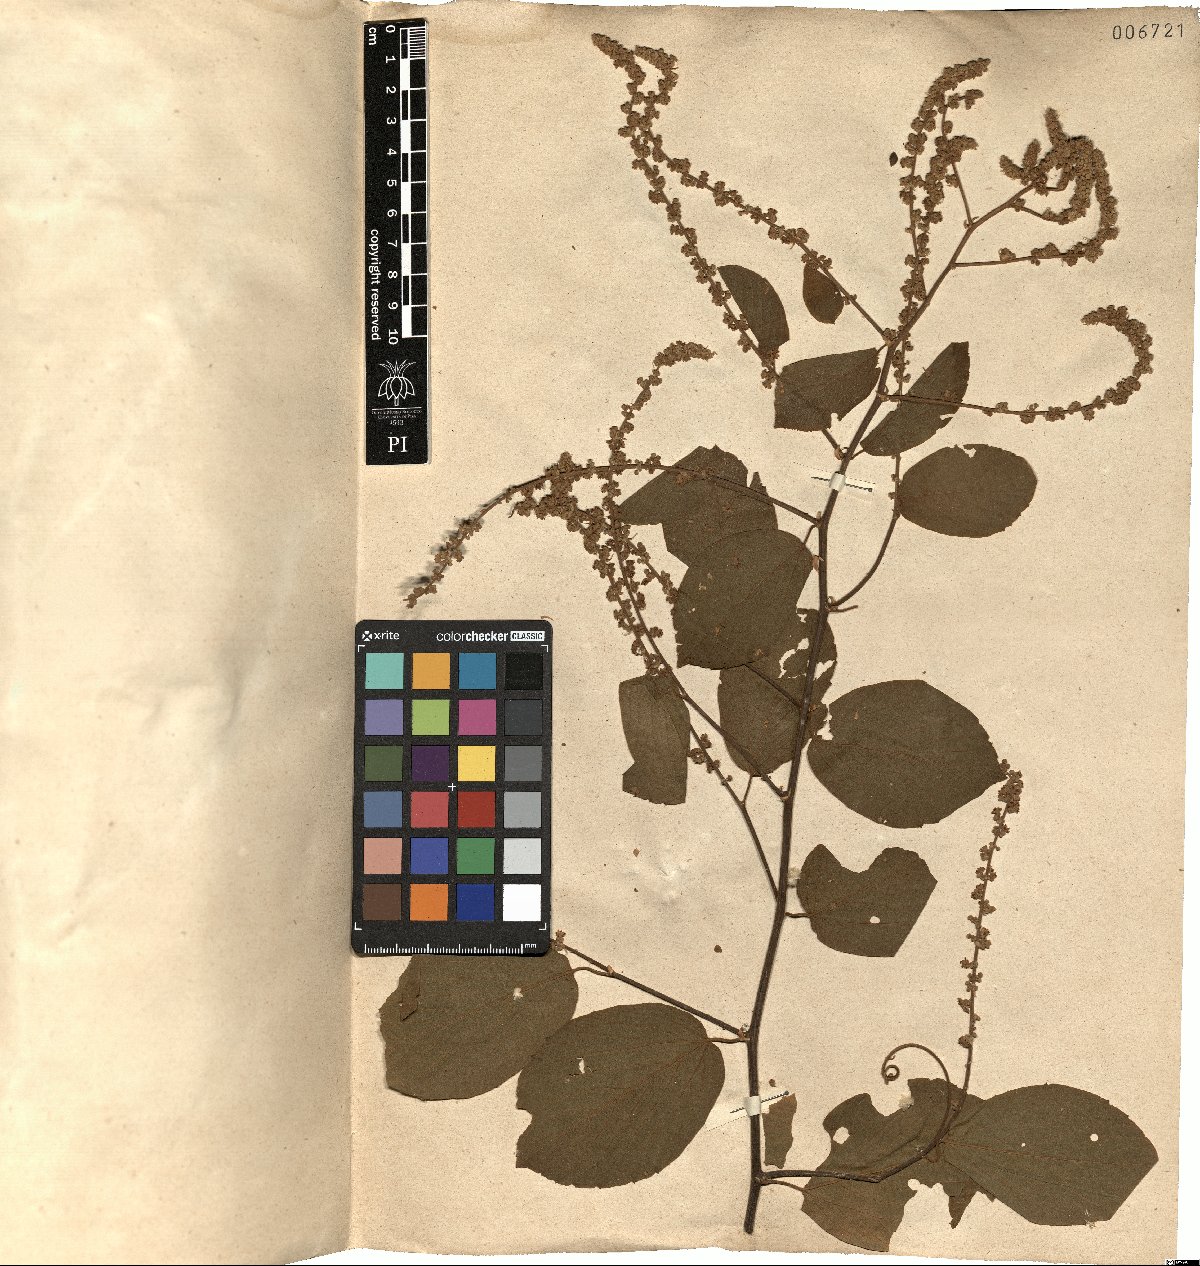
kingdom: Plantae
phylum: Tracheophyta
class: Magnoliopsida
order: Rosales
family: Rhamnaceae
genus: Gouania
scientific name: Gouania corylifolia
